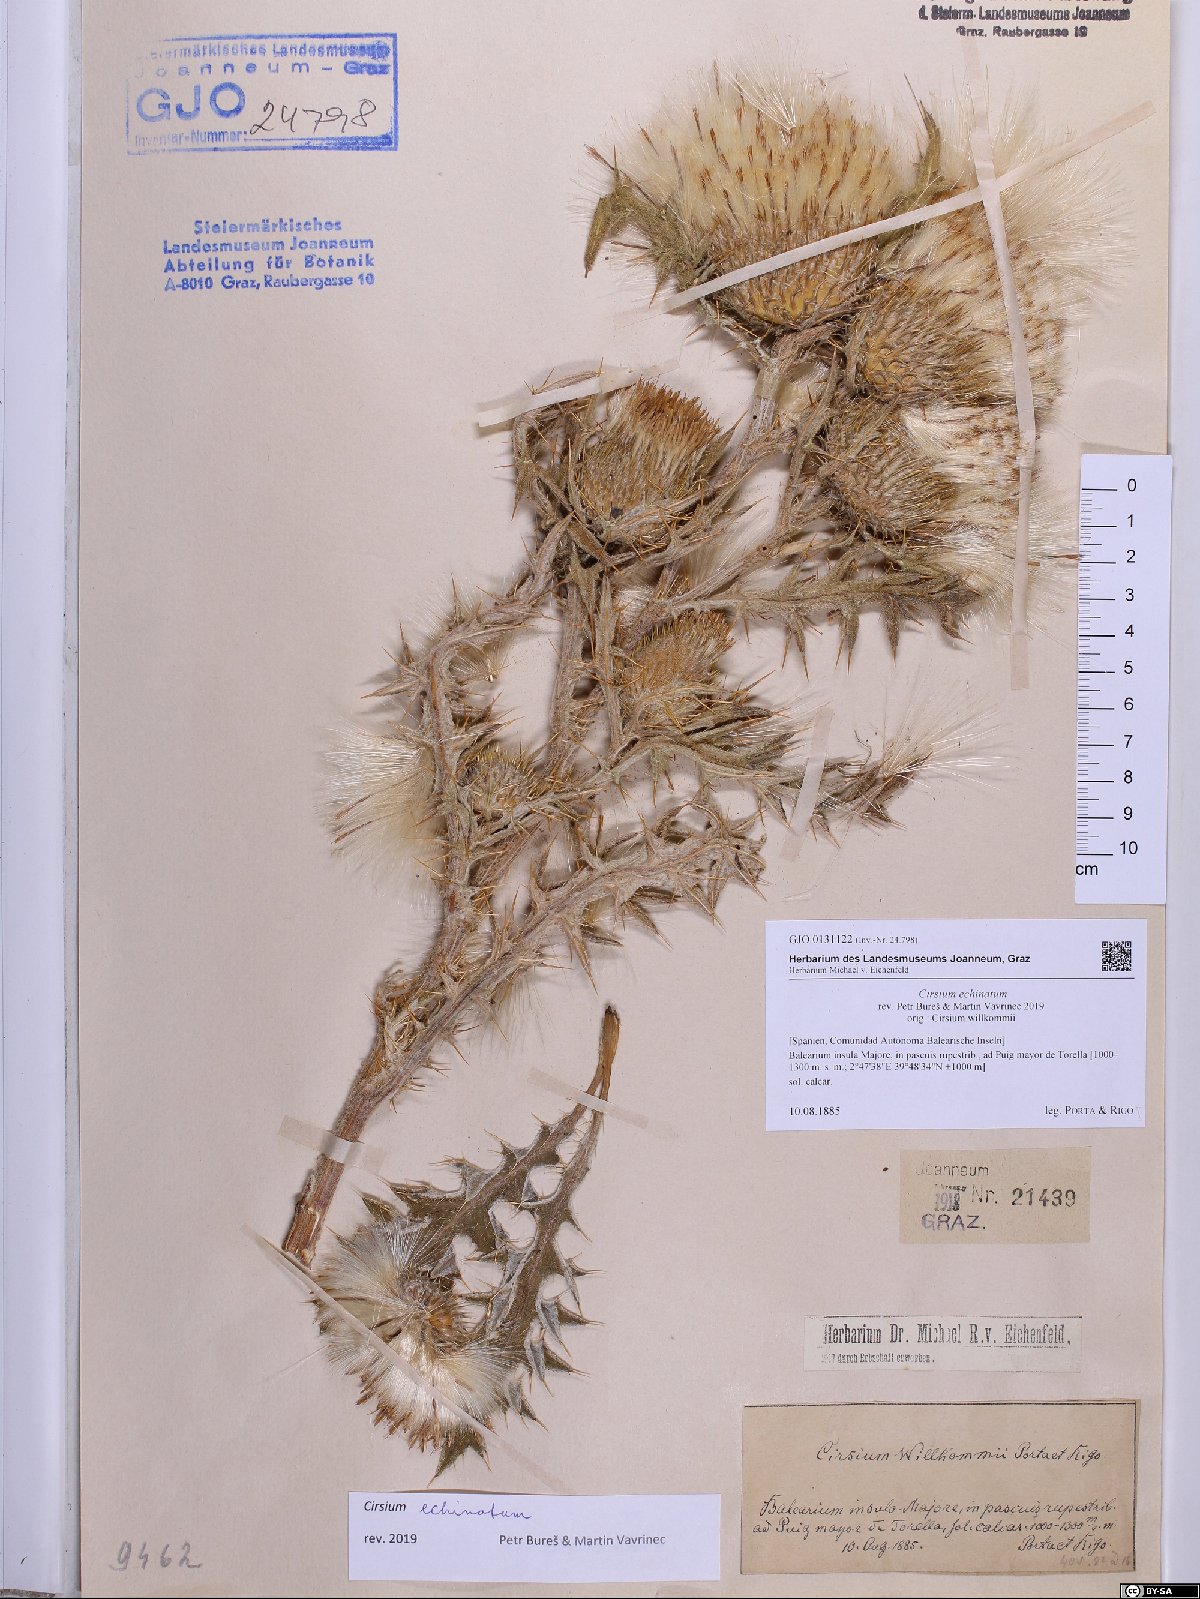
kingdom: Plantae
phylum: Tracheophyta
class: Magnoliopsida
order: Asterales
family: Asteraceae
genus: Lophiolepis
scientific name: Lophiolepis echinata
